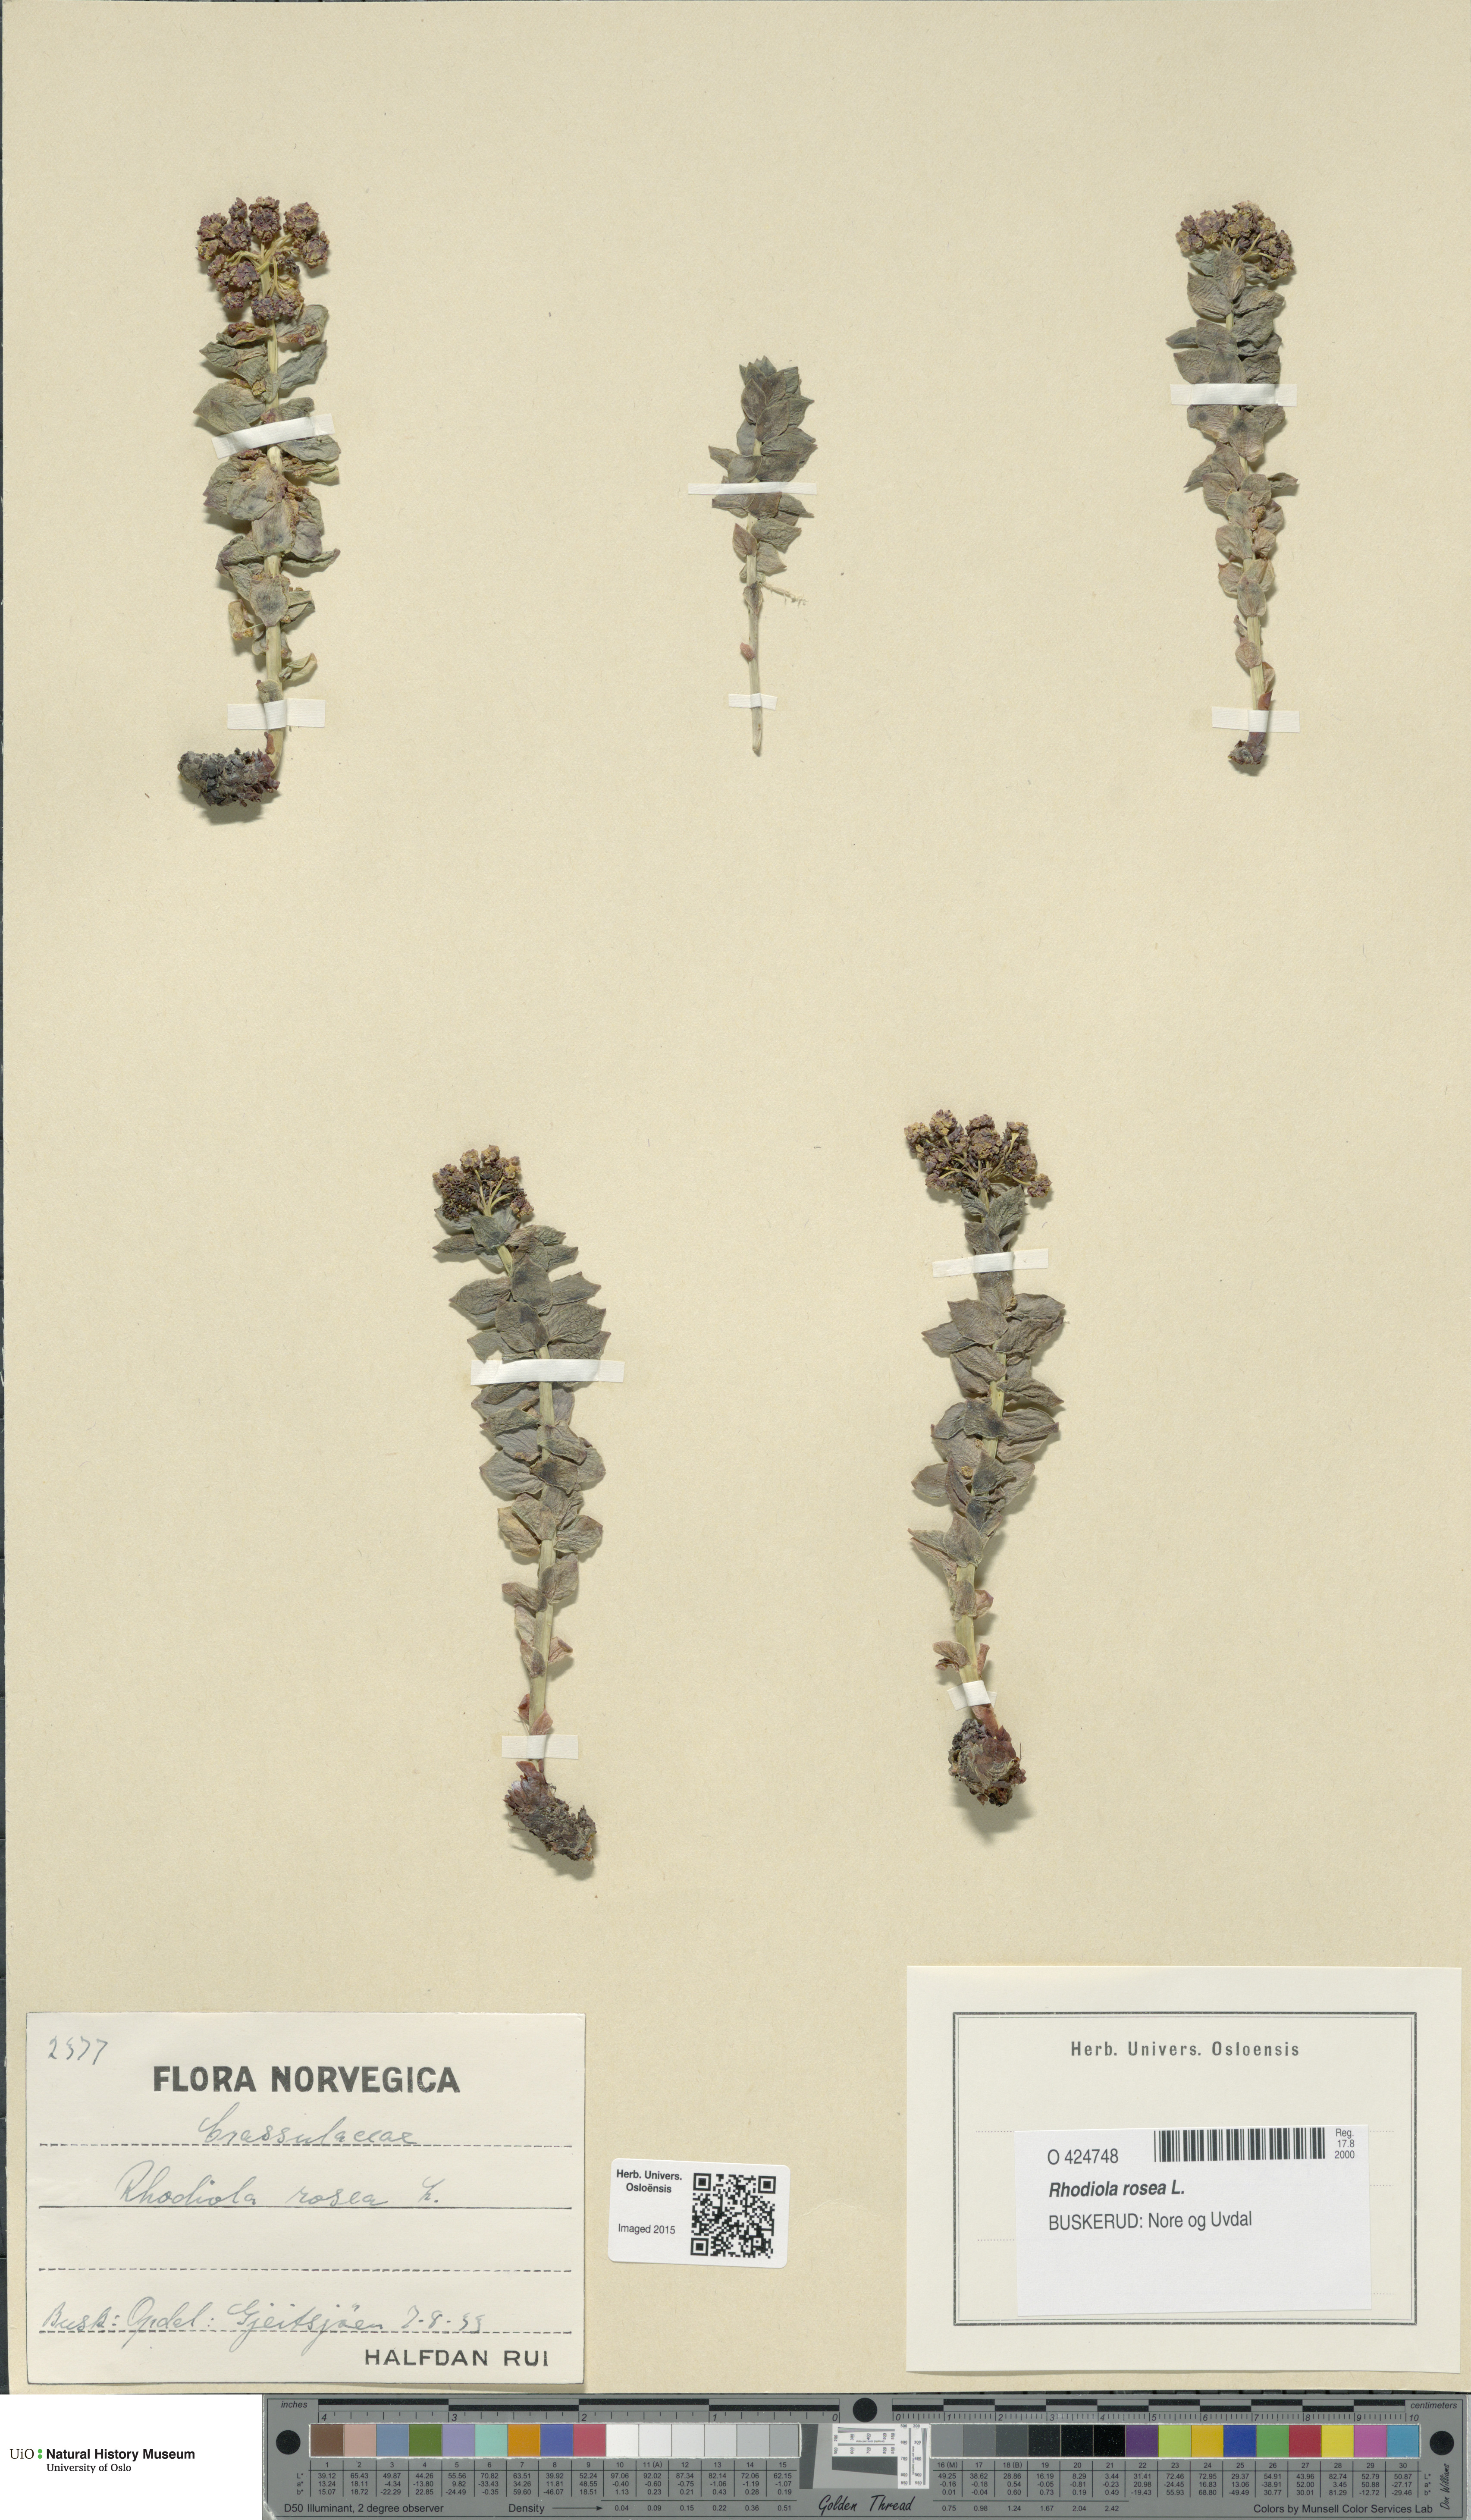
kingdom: Plantae
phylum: Tracheophyta
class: Magnoliopsida
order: Saxifragales
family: Crassulaceae
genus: Rhodiola
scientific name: Rhodiola rosea
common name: Roseroot
